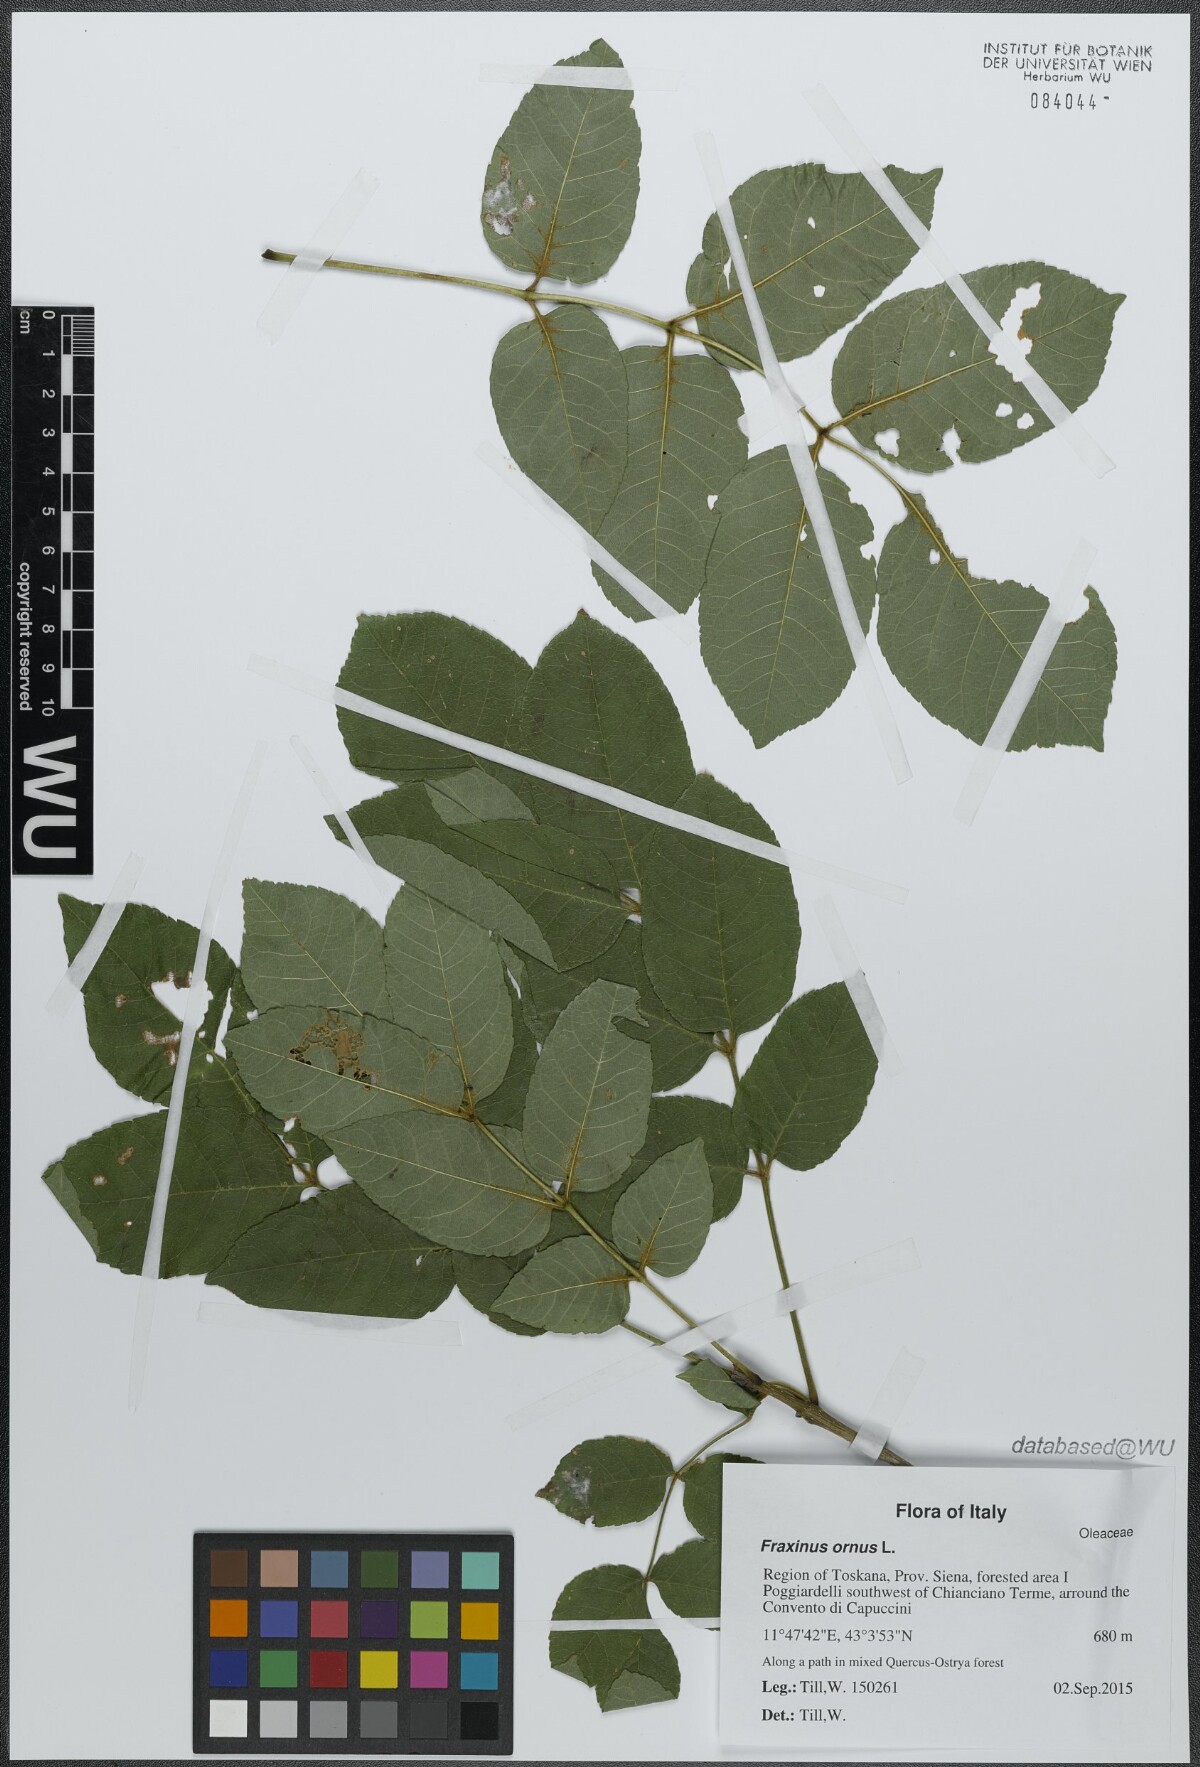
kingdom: Plantae
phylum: Tracheophyta
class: Magnoliopsida
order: Lamiales
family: Oleaceae
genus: Fraxinus
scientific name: Fraxinus ornus
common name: Manna ash
